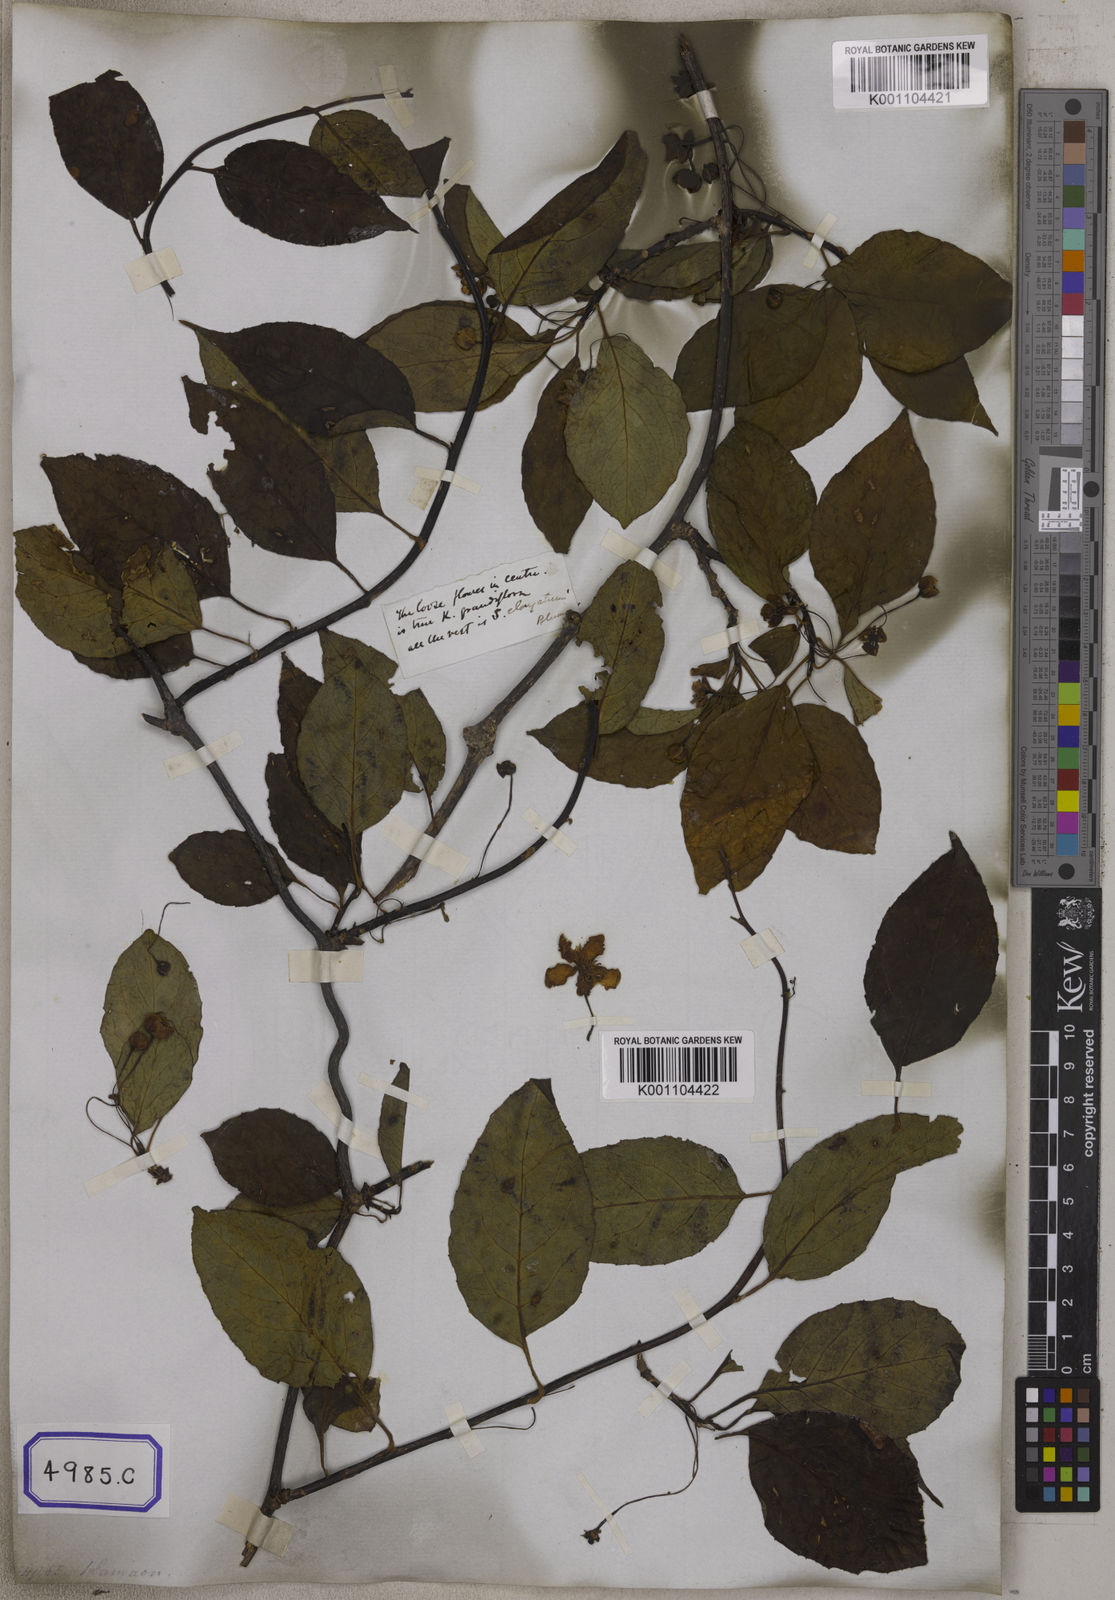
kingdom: Plantae
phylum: Tracheophyta
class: Magnoliopsida
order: Austrobaileyales
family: Schisandraceae
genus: Schisandra
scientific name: Schisandra grandiflora
